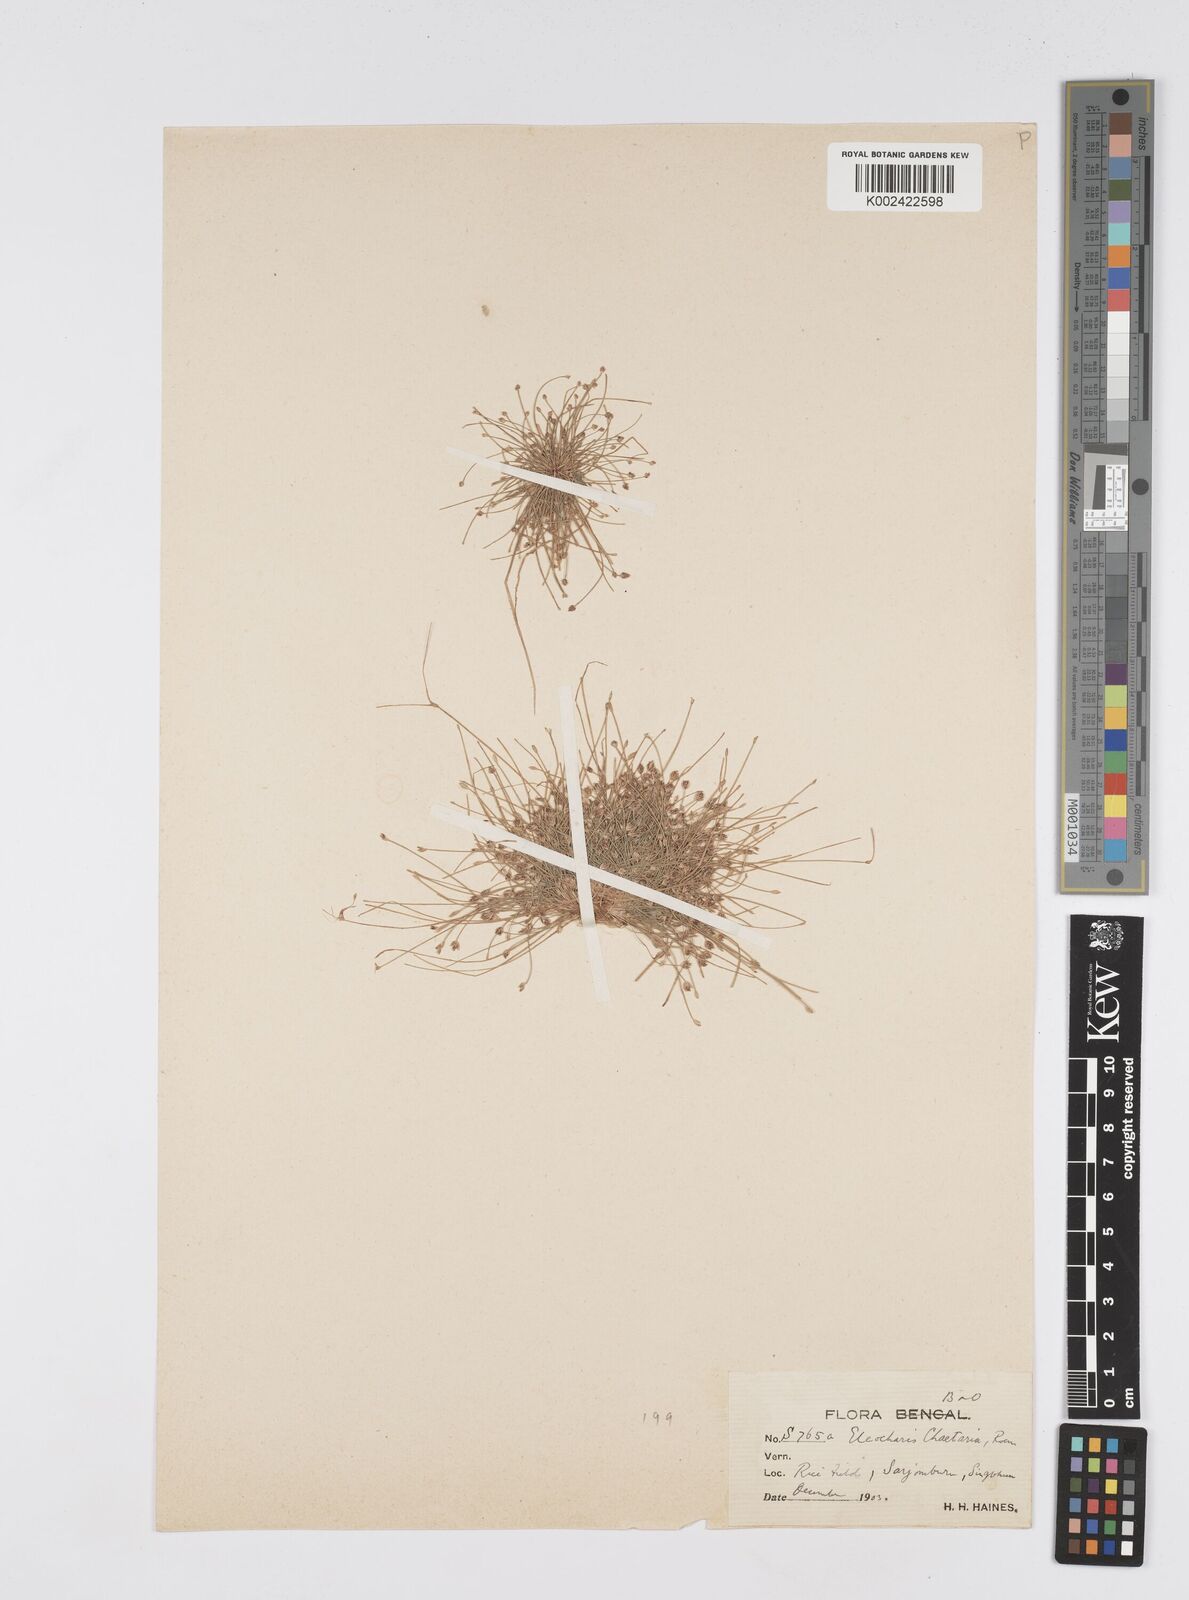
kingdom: Plantae
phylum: Tracheophyta
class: Liliopsida
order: Poales
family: Cyperaceae
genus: Eleocharis
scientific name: Eleocharis retroflexa
